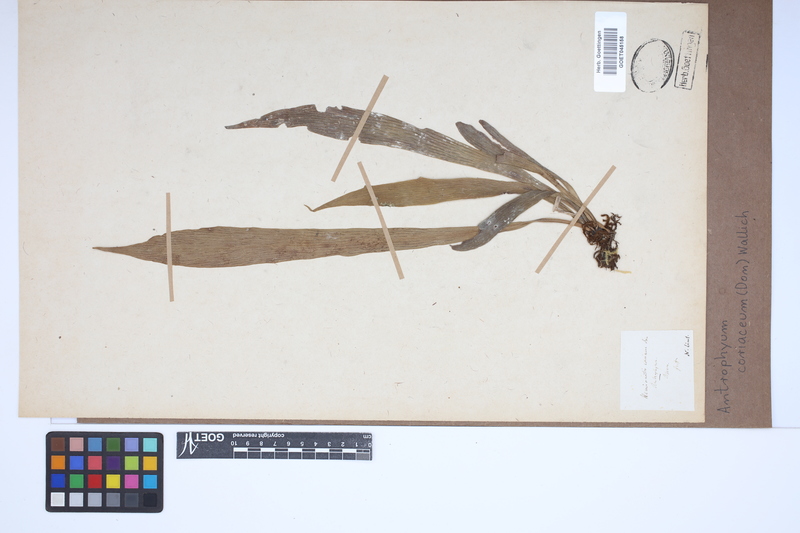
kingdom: Plantae
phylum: Tracheophyta
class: Polypodiopsida
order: Polypodiales
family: Pteridaceae
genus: Antrophyum
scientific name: Antrophyum reticulatum
